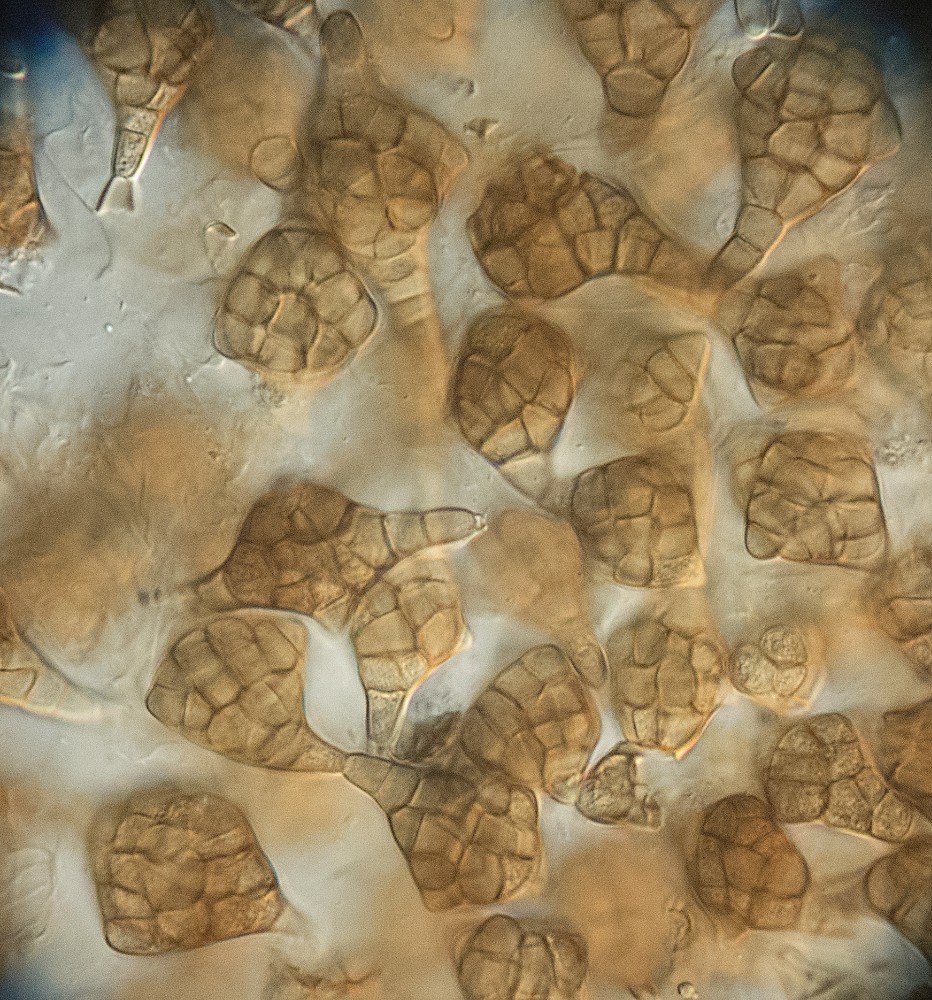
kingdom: Fungi
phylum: Ascomycota
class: Dothideomycetes
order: Pleosporales
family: Melanommataceae
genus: Phragmotrichum
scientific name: Phragmotrichum chailletii
